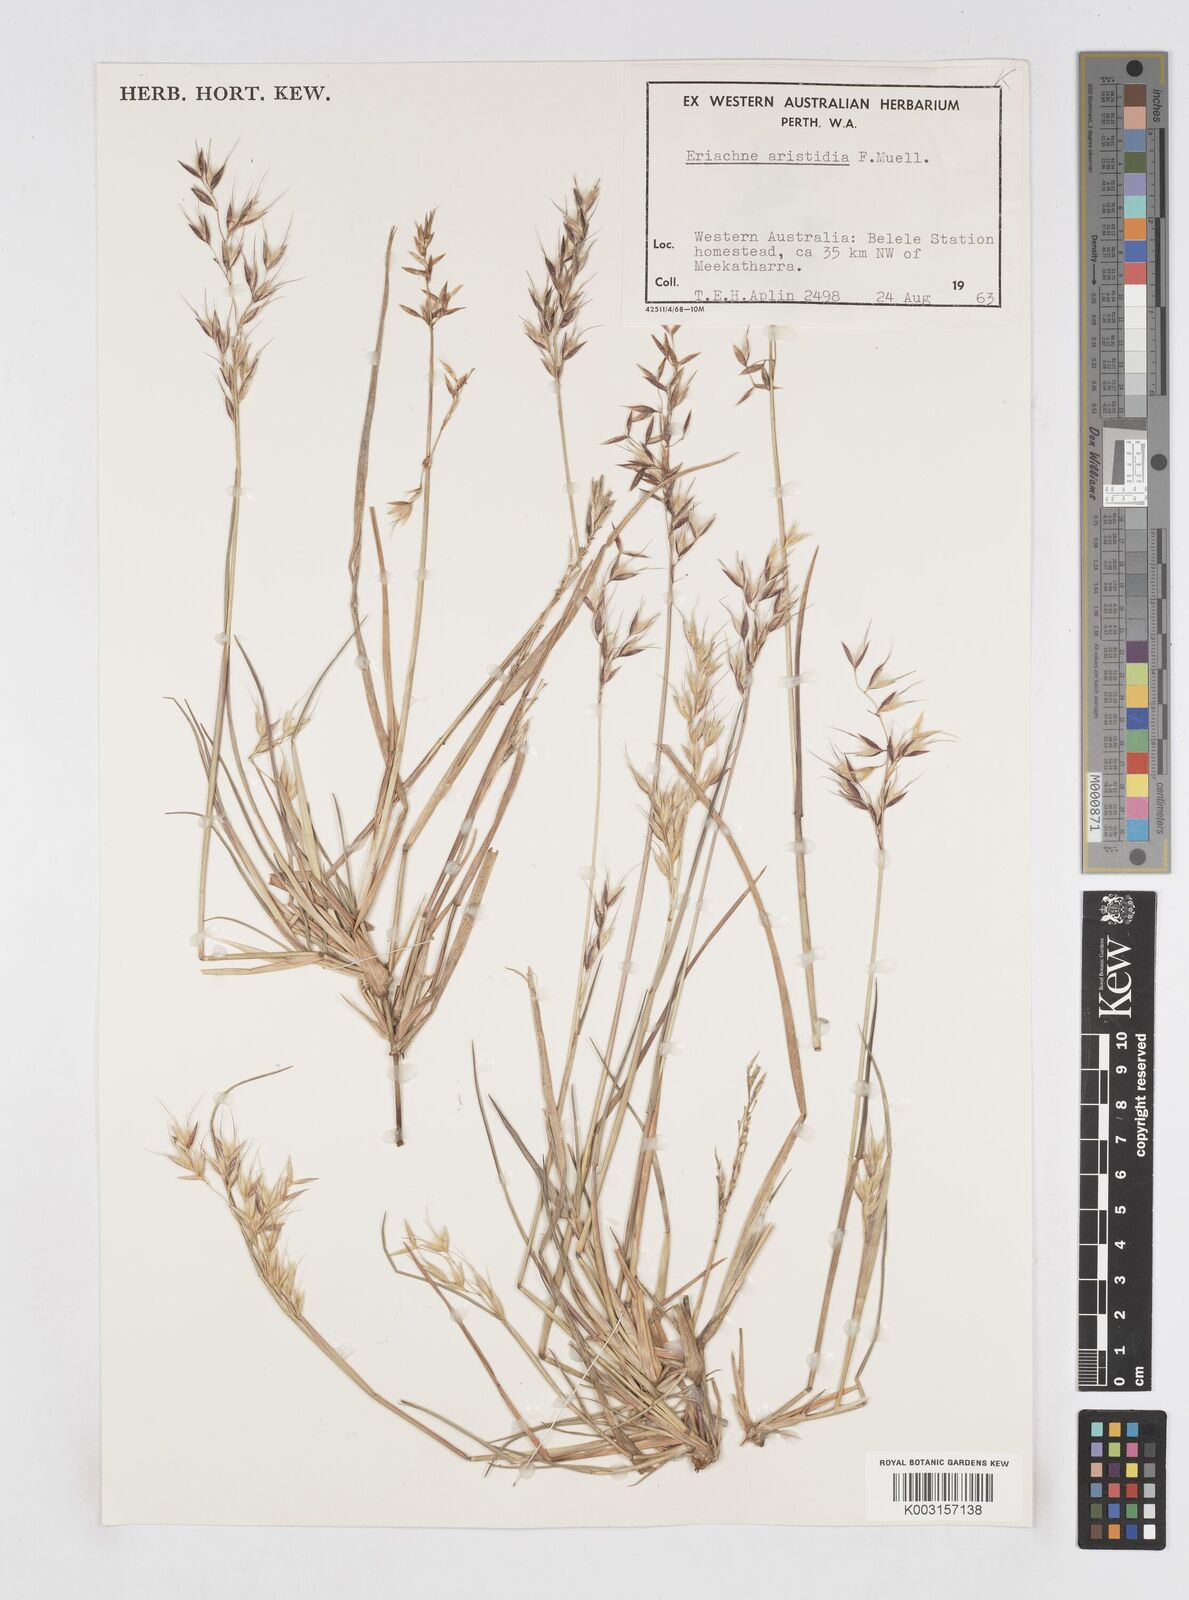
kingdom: Plantae
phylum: Tracheophyta
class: Liliopsida
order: Poales
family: Poaceae
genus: Eriachne
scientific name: Eriachne aristidea
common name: Three-awn wanderrie grass
